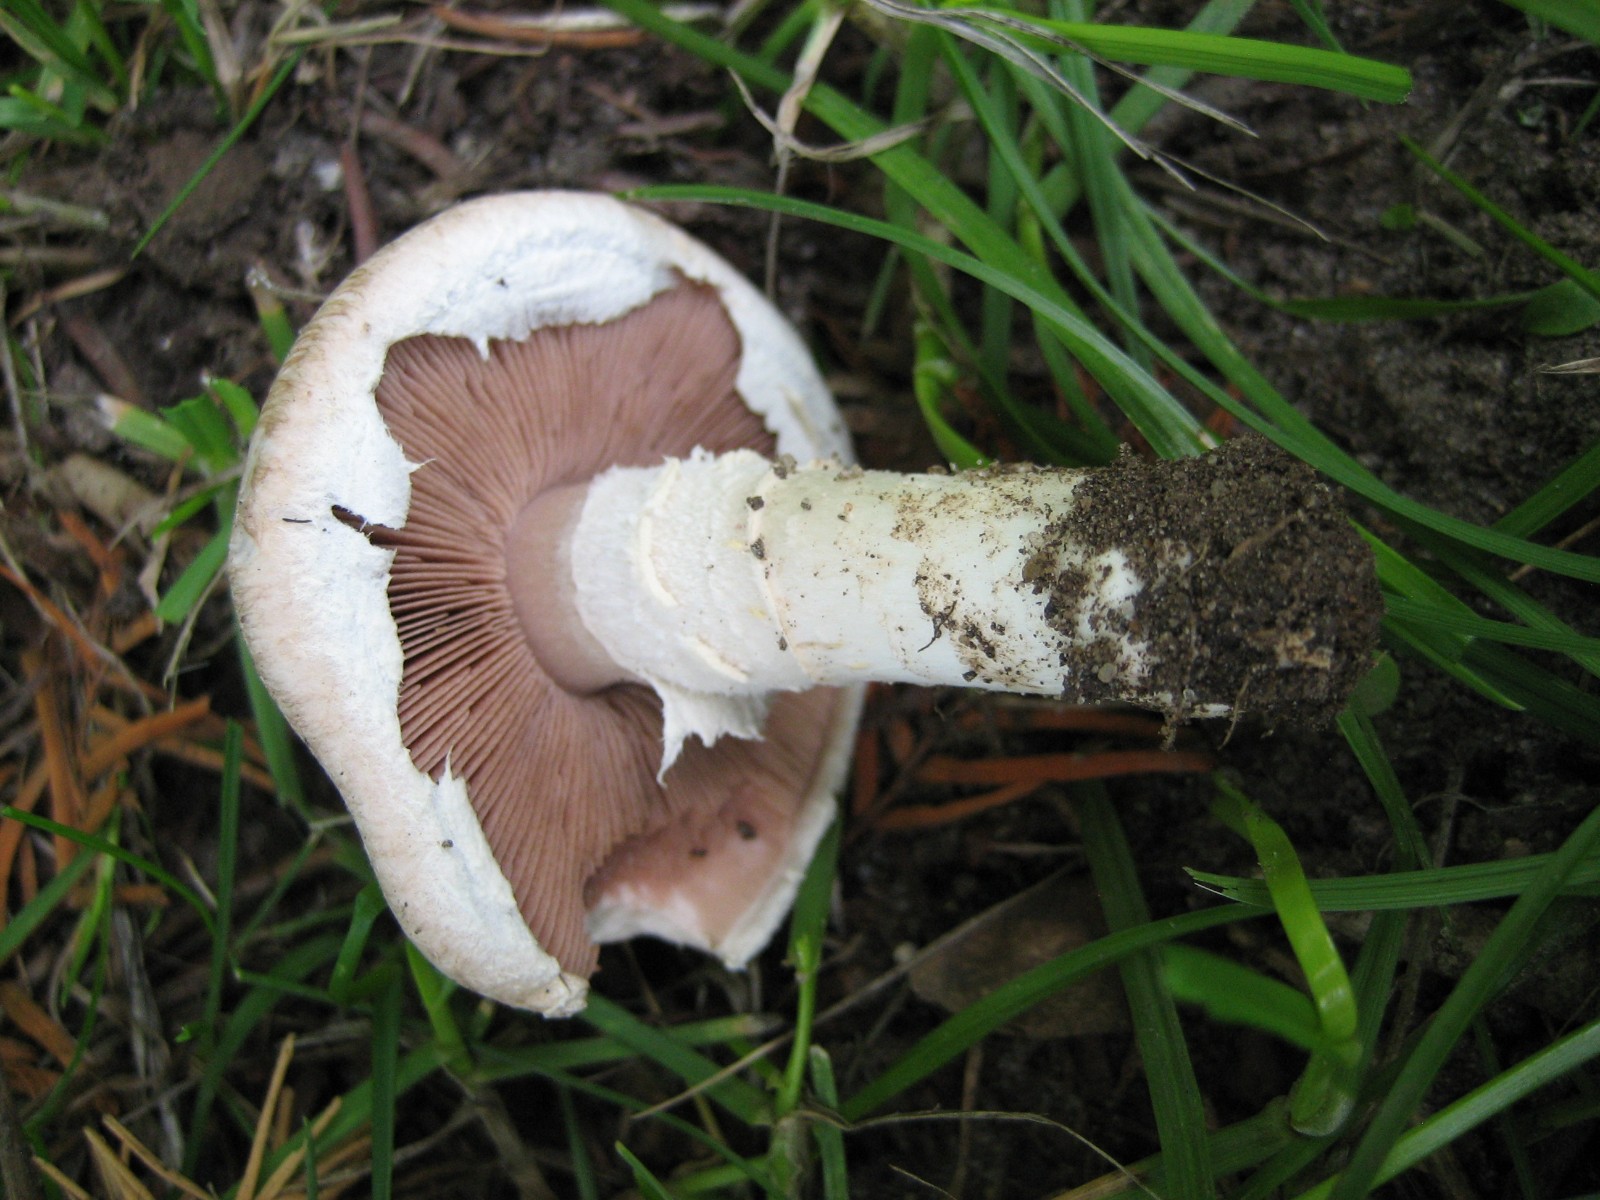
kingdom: Fungi
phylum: Basidiomycota
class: Agaricomycetes
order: Agaricales
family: Agaricaceae
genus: Agaricus
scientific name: Agaricus
